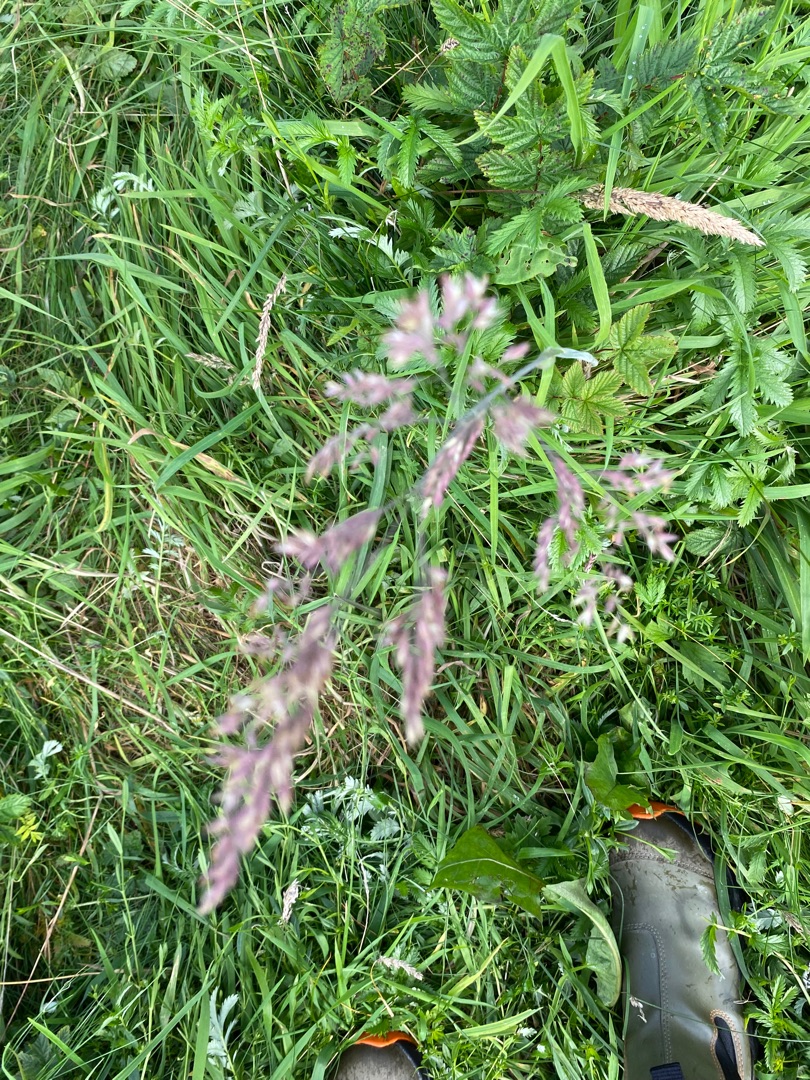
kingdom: Plantae
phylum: Tracheophyta
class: Liliopsida
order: Poales
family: Poaceae
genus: Holcus
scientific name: Holcus lanatus
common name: Fløjlsgræs
